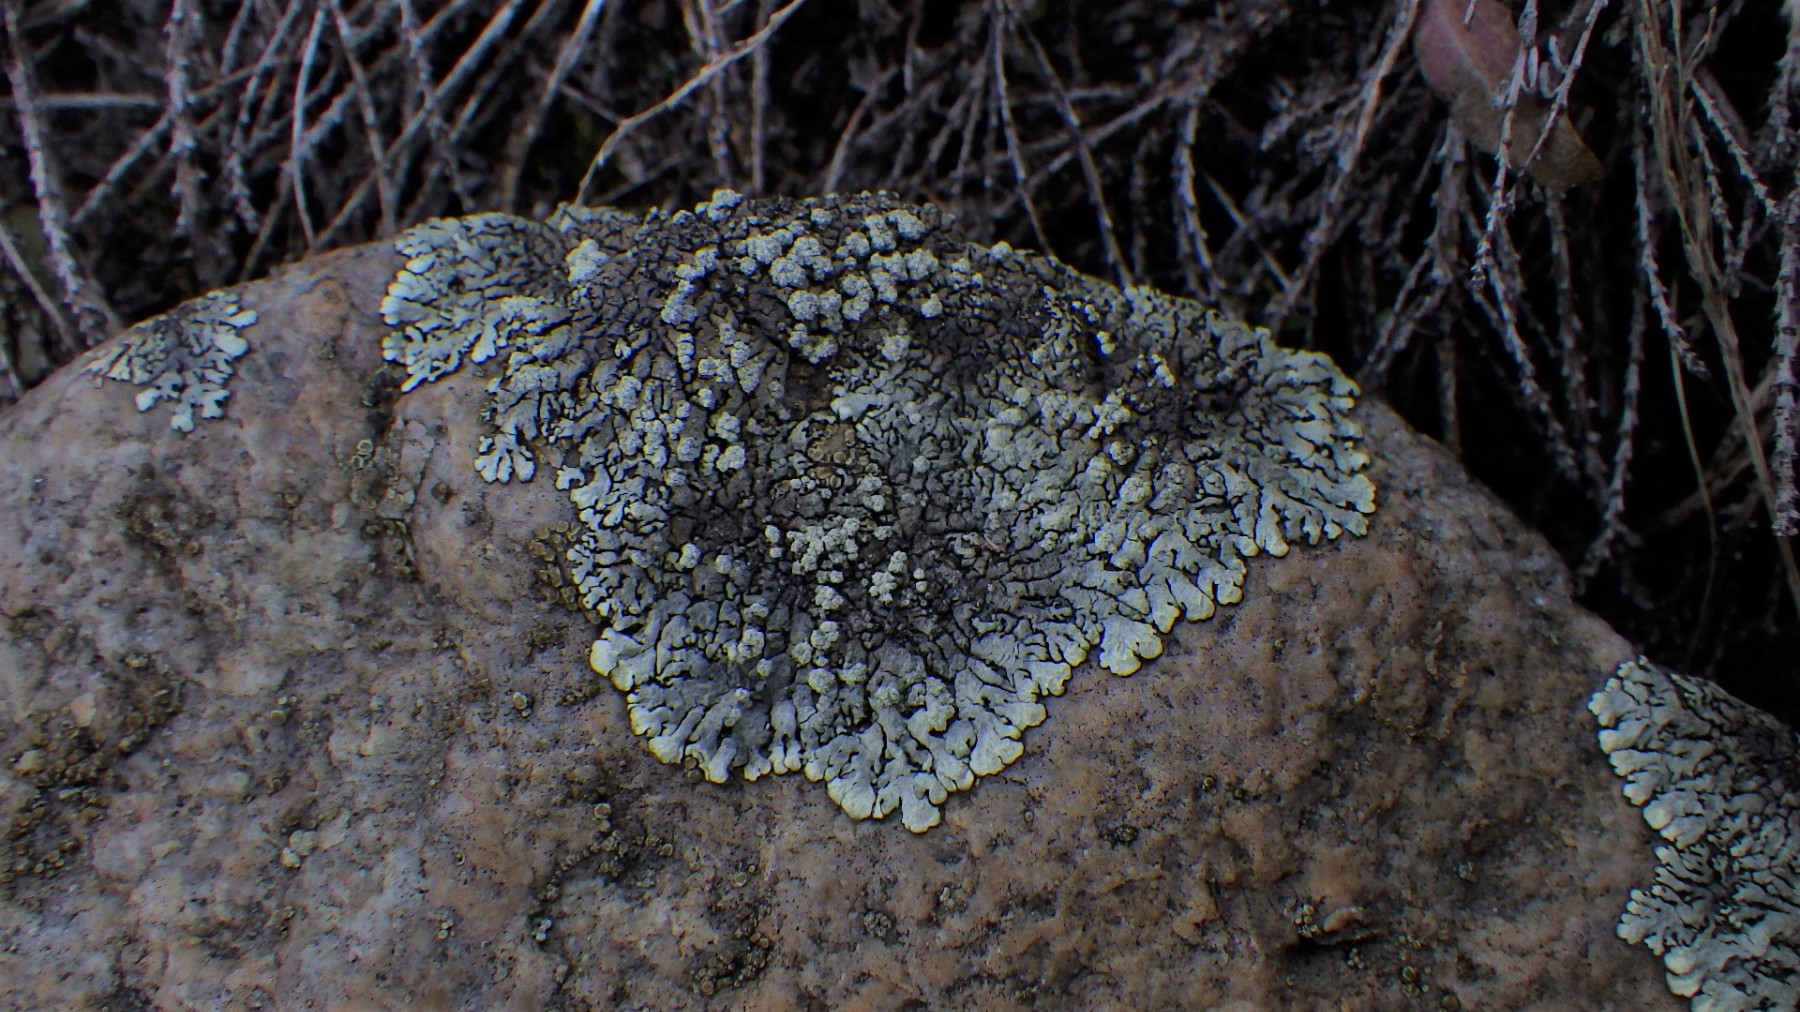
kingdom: Fungi
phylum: Ascomycota
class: Lecanoromycetes
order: Lecanorales
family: Parmeliaceae
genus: Xanthoparmelia
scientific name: Xanthoparmelia mougeotii
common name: liden skållav
